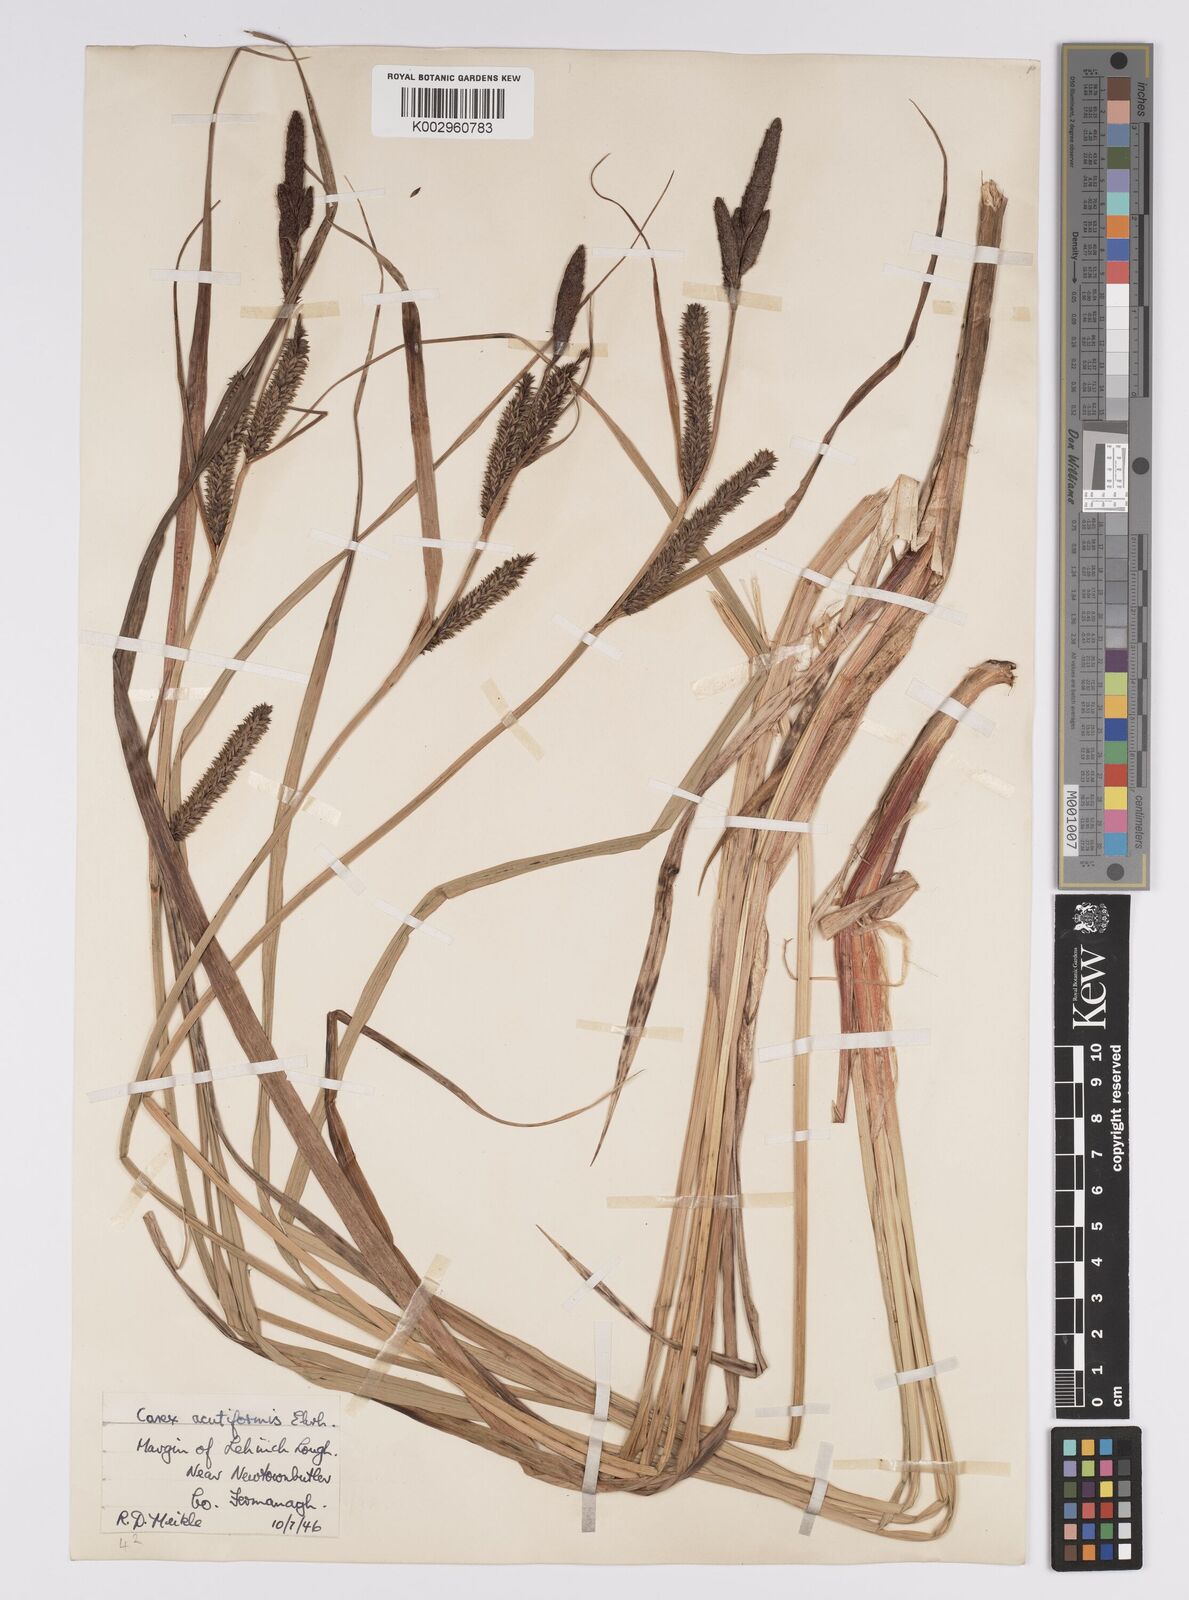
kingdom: Plantae
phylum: Tracheophyta
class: Liliopsida
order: Poales
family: Cyperaceae
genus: Carex
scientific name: Carex acutiformis
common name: Lesser pond-sedge
